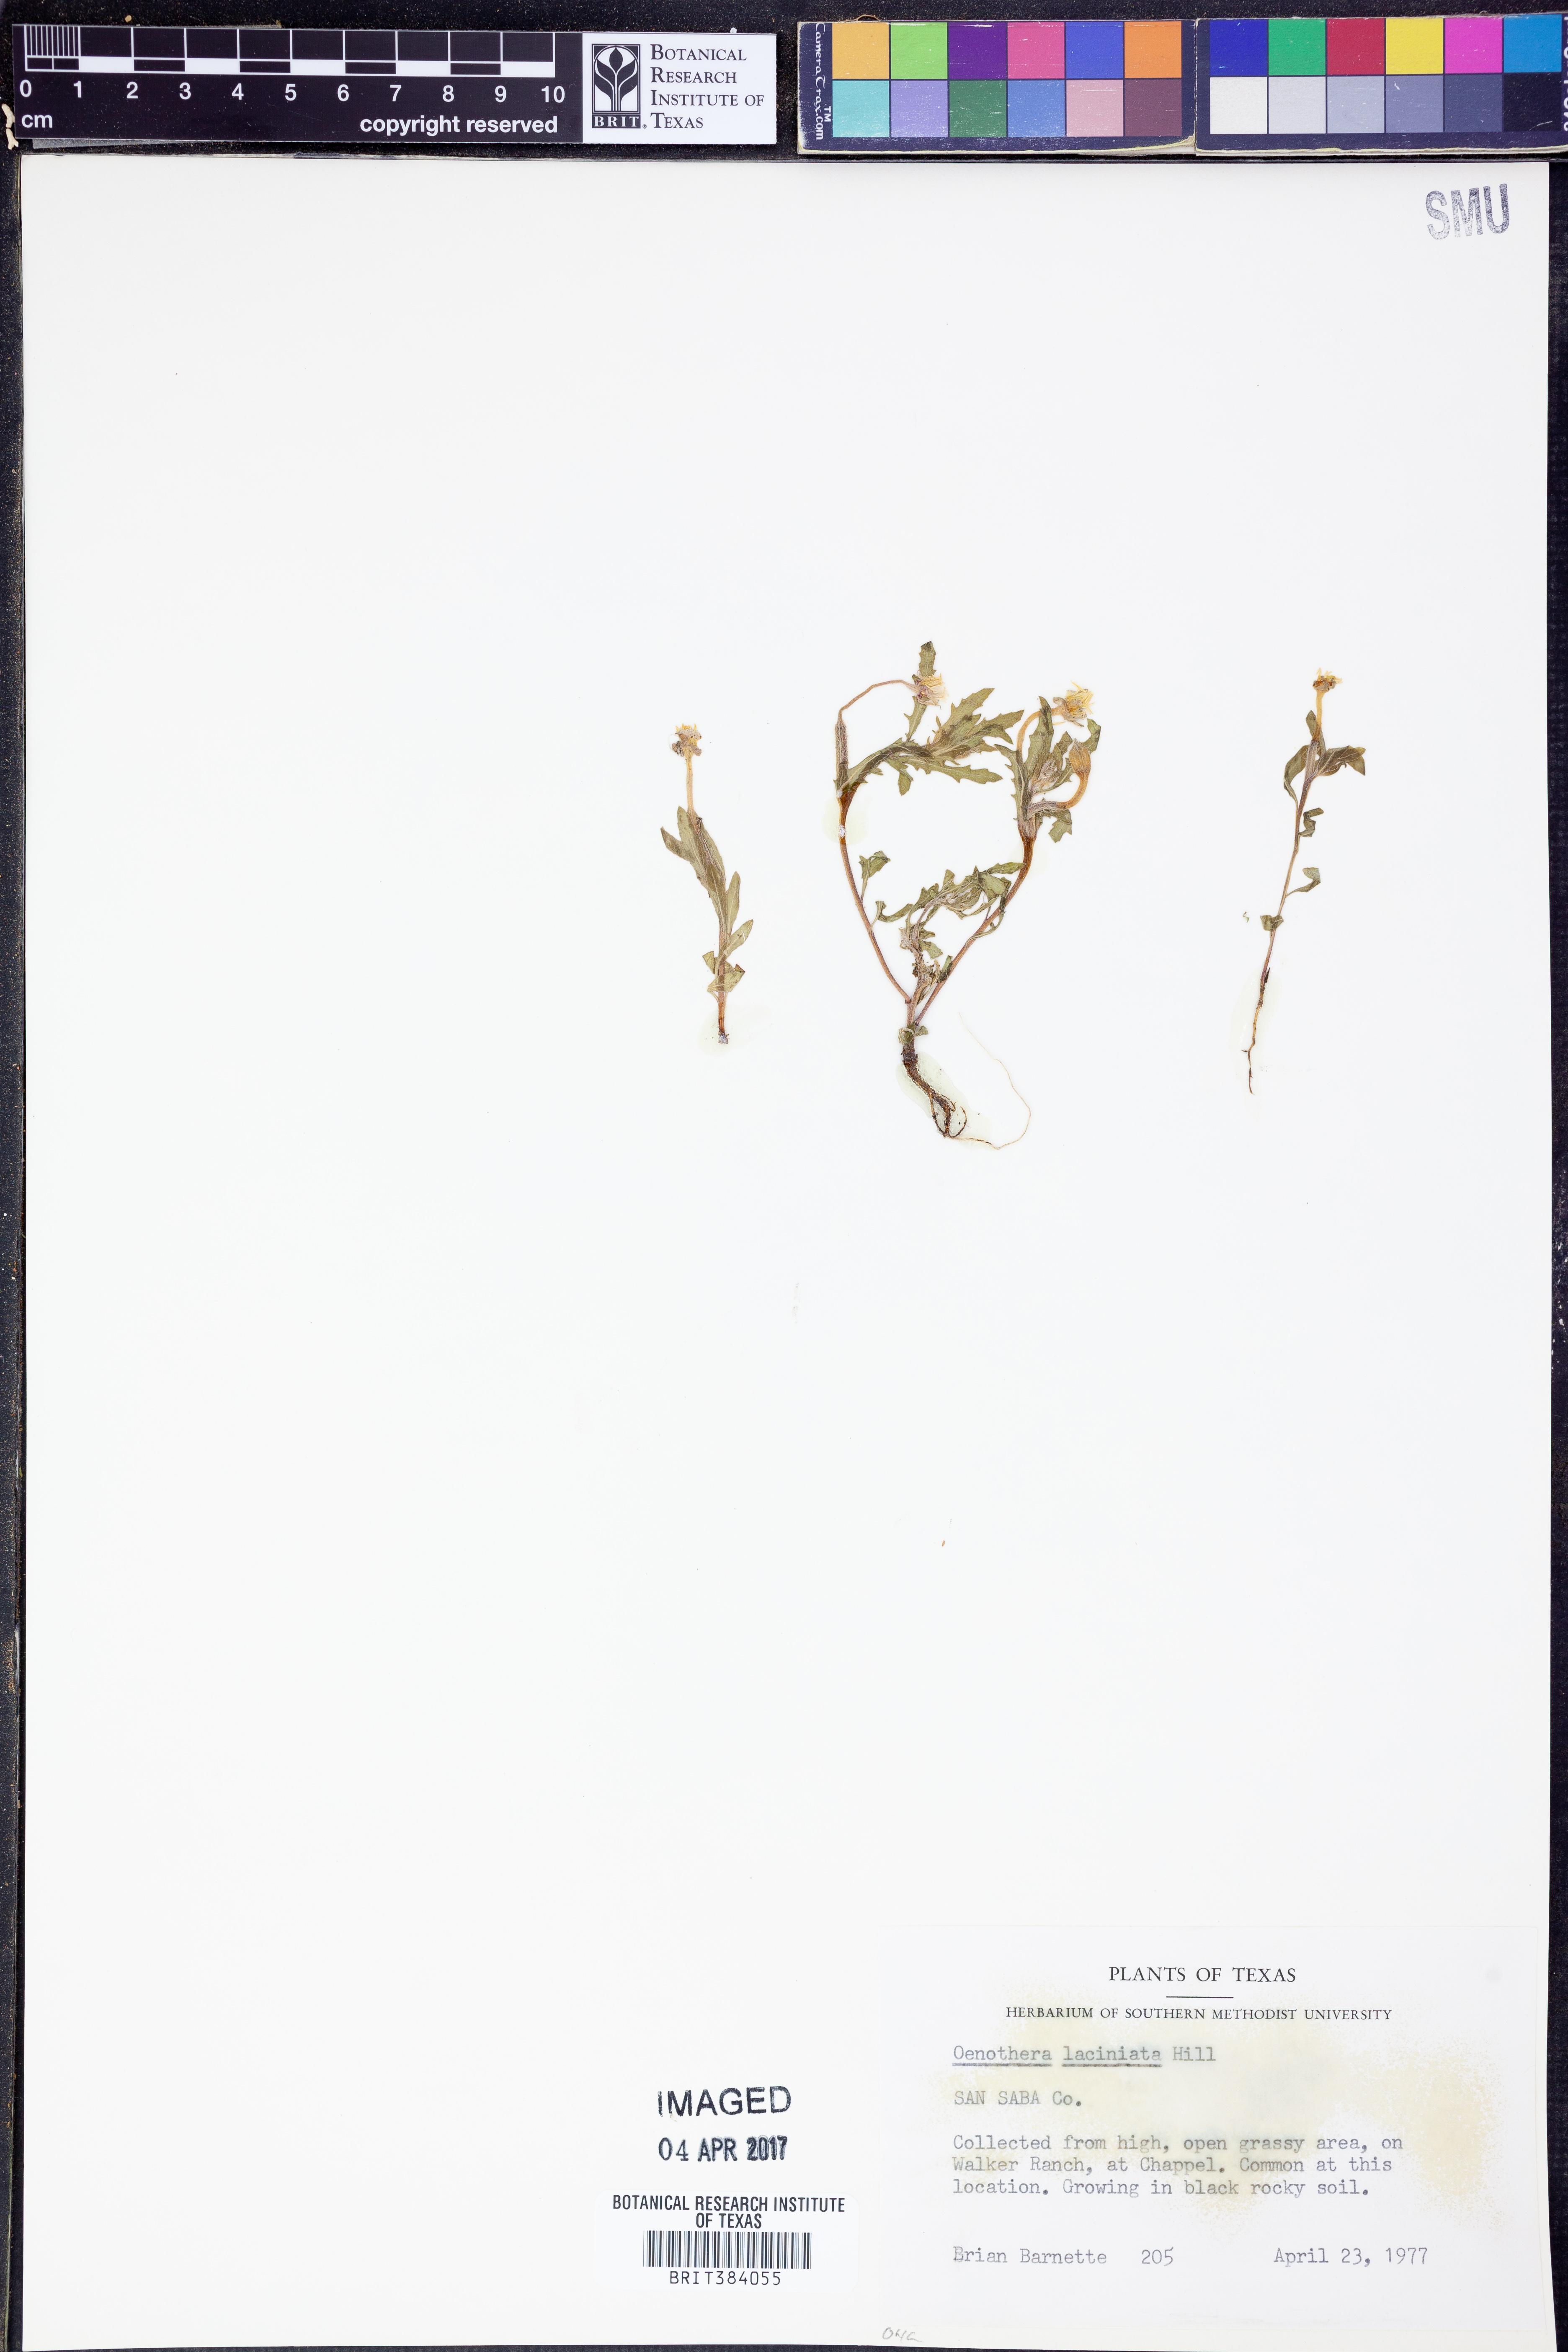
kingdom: Plantae
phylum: Tracheophyta
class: Magnoliopsida
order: Myrtales
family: Onagraceae
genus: Oenothera
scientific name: Oenothera laciniata
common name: Cut-leaved evening-primrose
